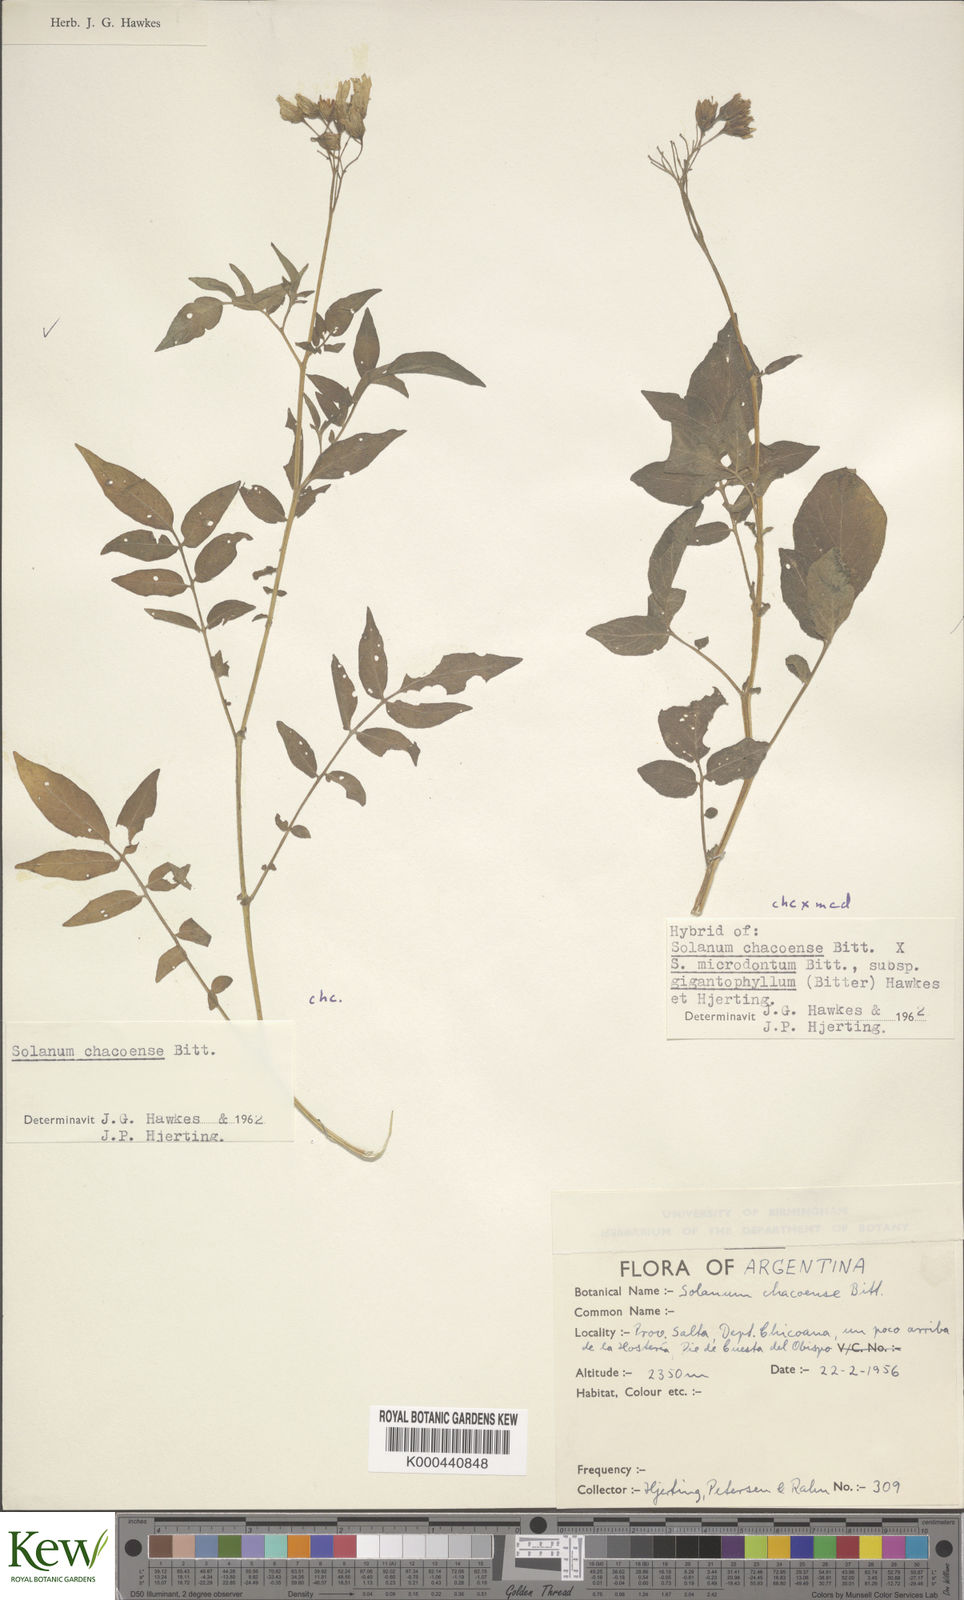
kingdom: Plantae
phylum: Tracheophyta
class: Magnoliopsida
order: Solanales
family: Solanaceae
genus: Solanum
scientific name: Solanum microdontum
